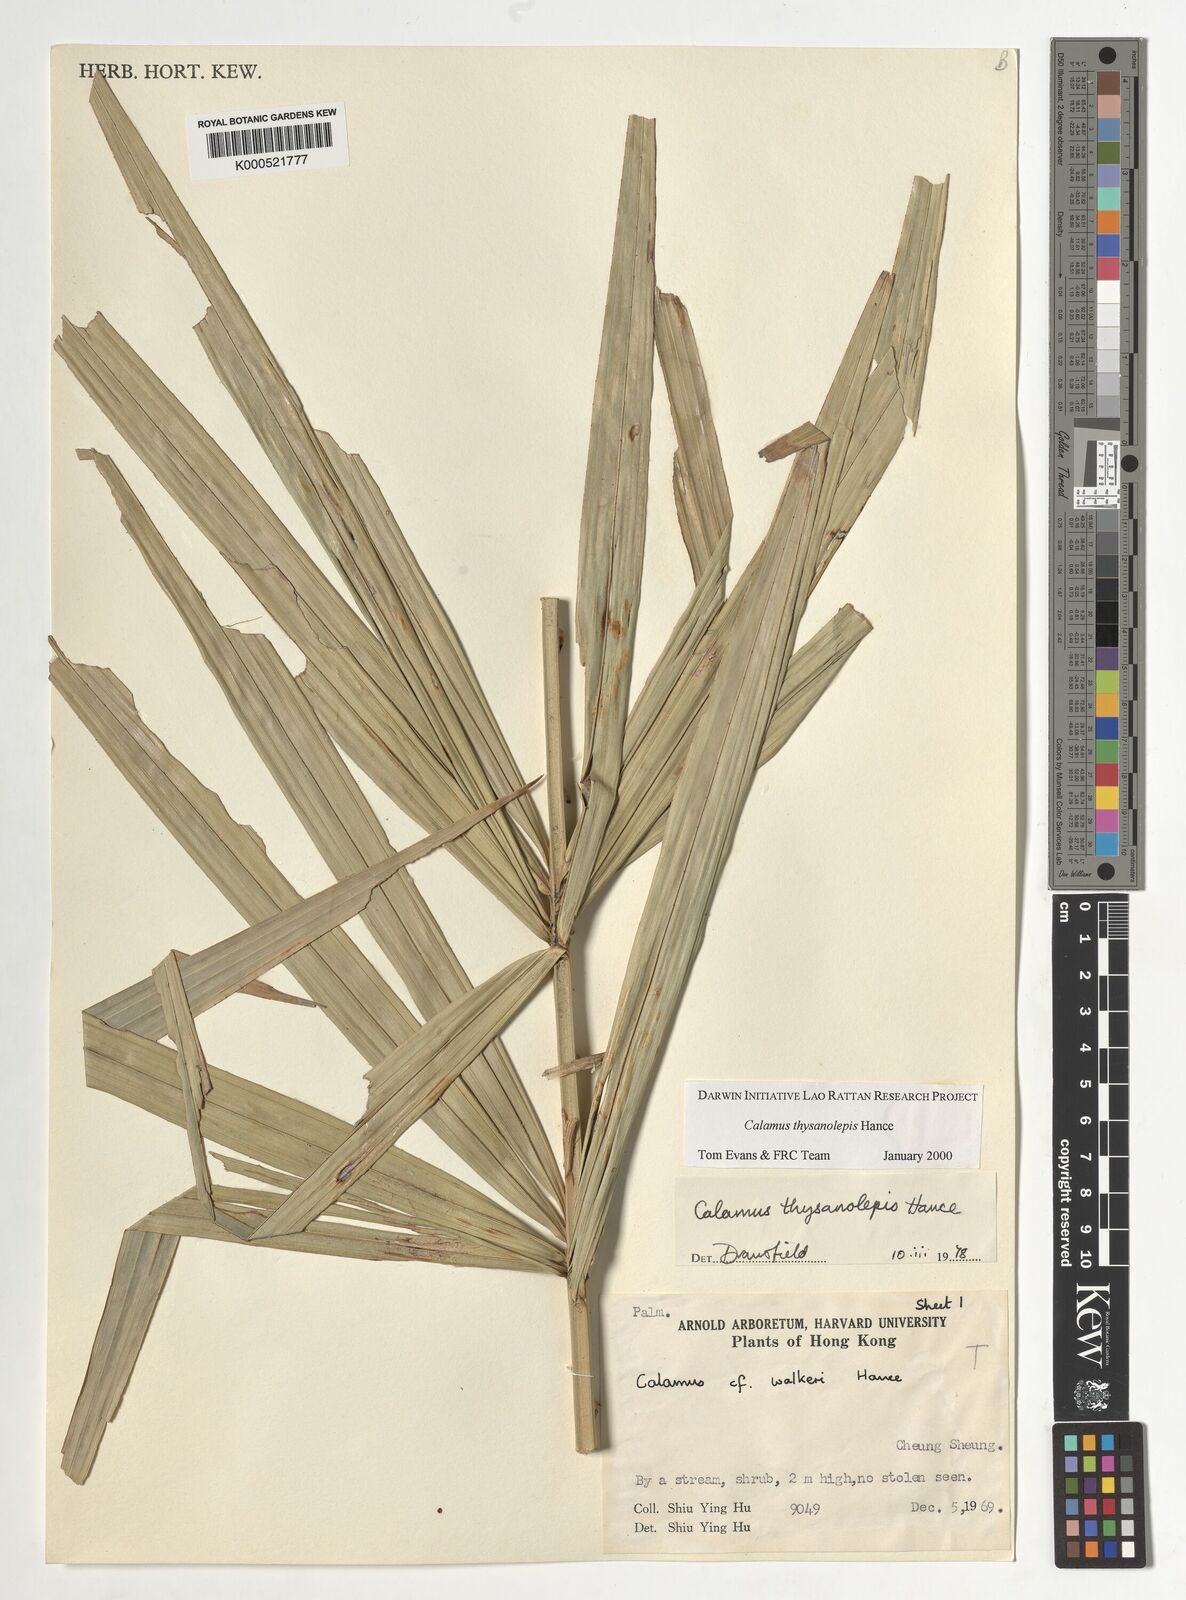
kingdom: Plantae
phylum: Tracheophyta
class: Liliopsida
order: Arecales
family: Arecaceae
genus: Calamus
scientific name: Calamus thysanolepis
